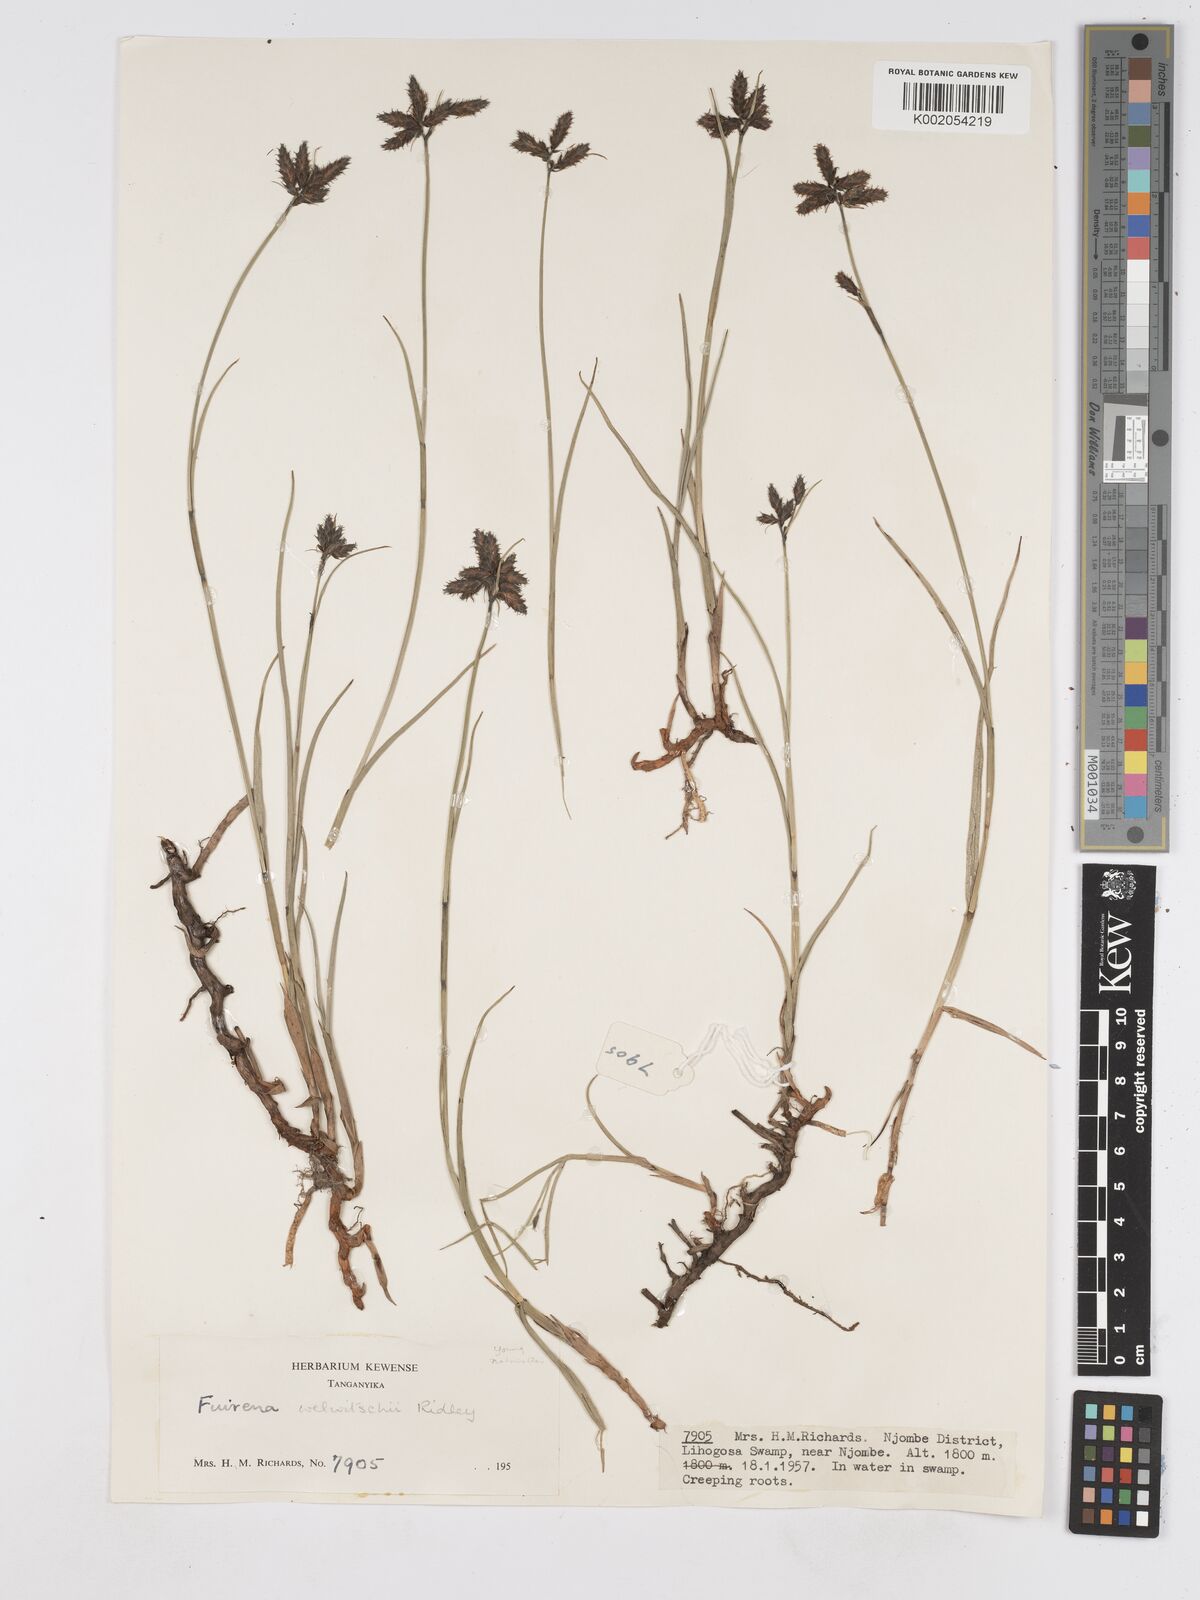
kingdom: Plantae
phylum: Tracheophyta
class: Liliopsida
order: Poales
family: Cyperaceae
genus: Fuirena
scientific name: Fuirena welwitschii
